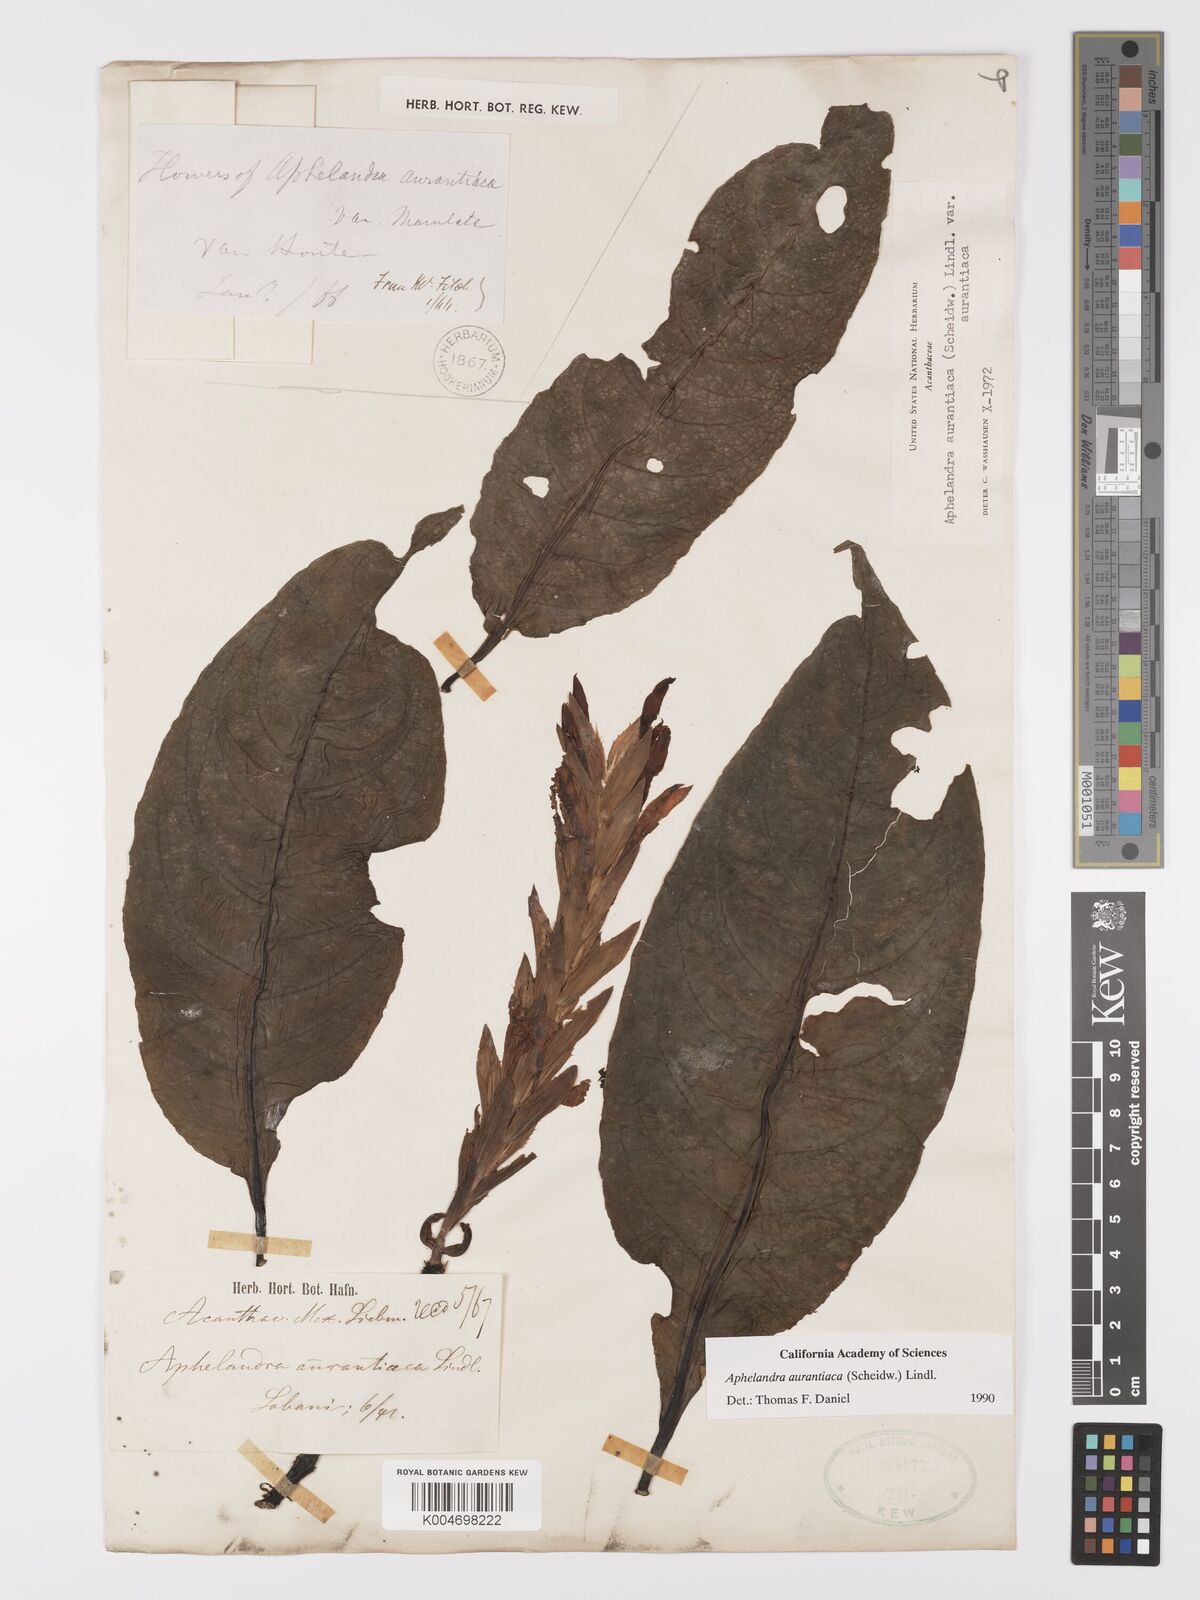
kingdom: Plantae
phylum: Tracheophyta
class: Magnoliopsida
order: Lamiales
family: Acanthaceae
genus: Aphelandra
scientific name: Aphelandra aurantiaca
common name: Fiery spike
